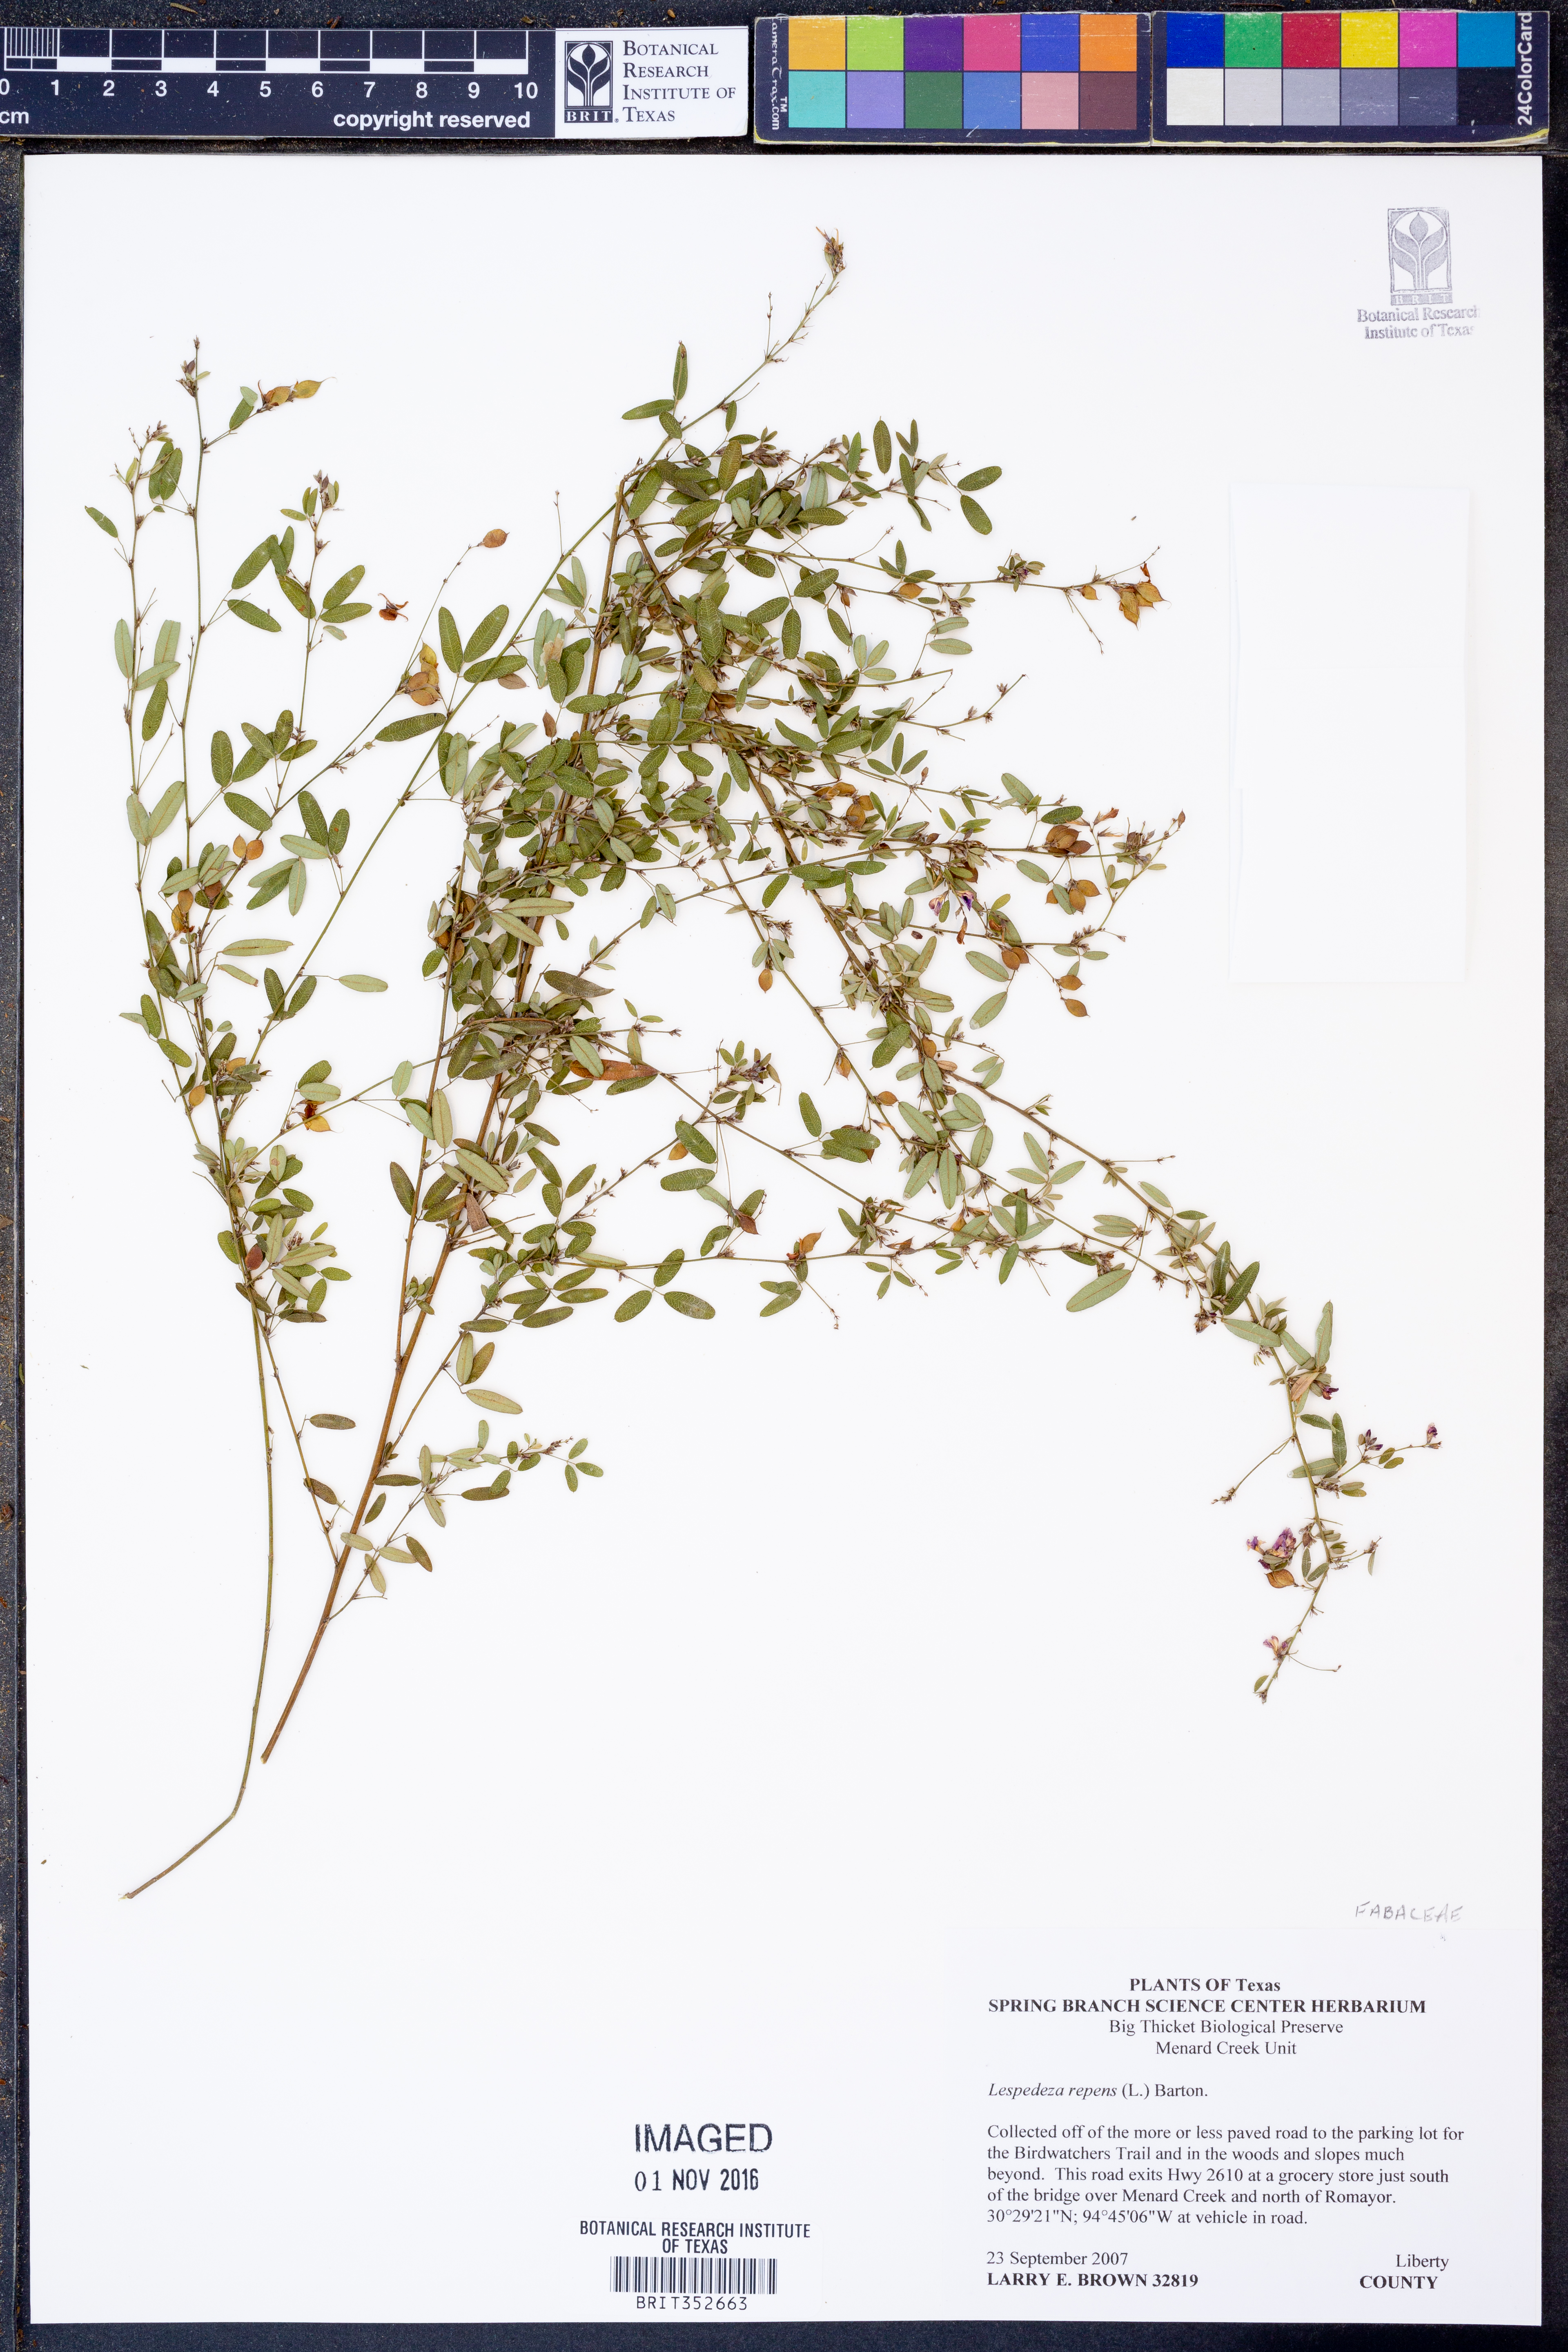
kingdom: Plantae
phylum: Tracheophyta
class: Magnoliopsida
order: Fabales
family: Fabaceae
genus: Lespedeza
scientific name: Lespedeza repens
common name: Creeping bush-clover
